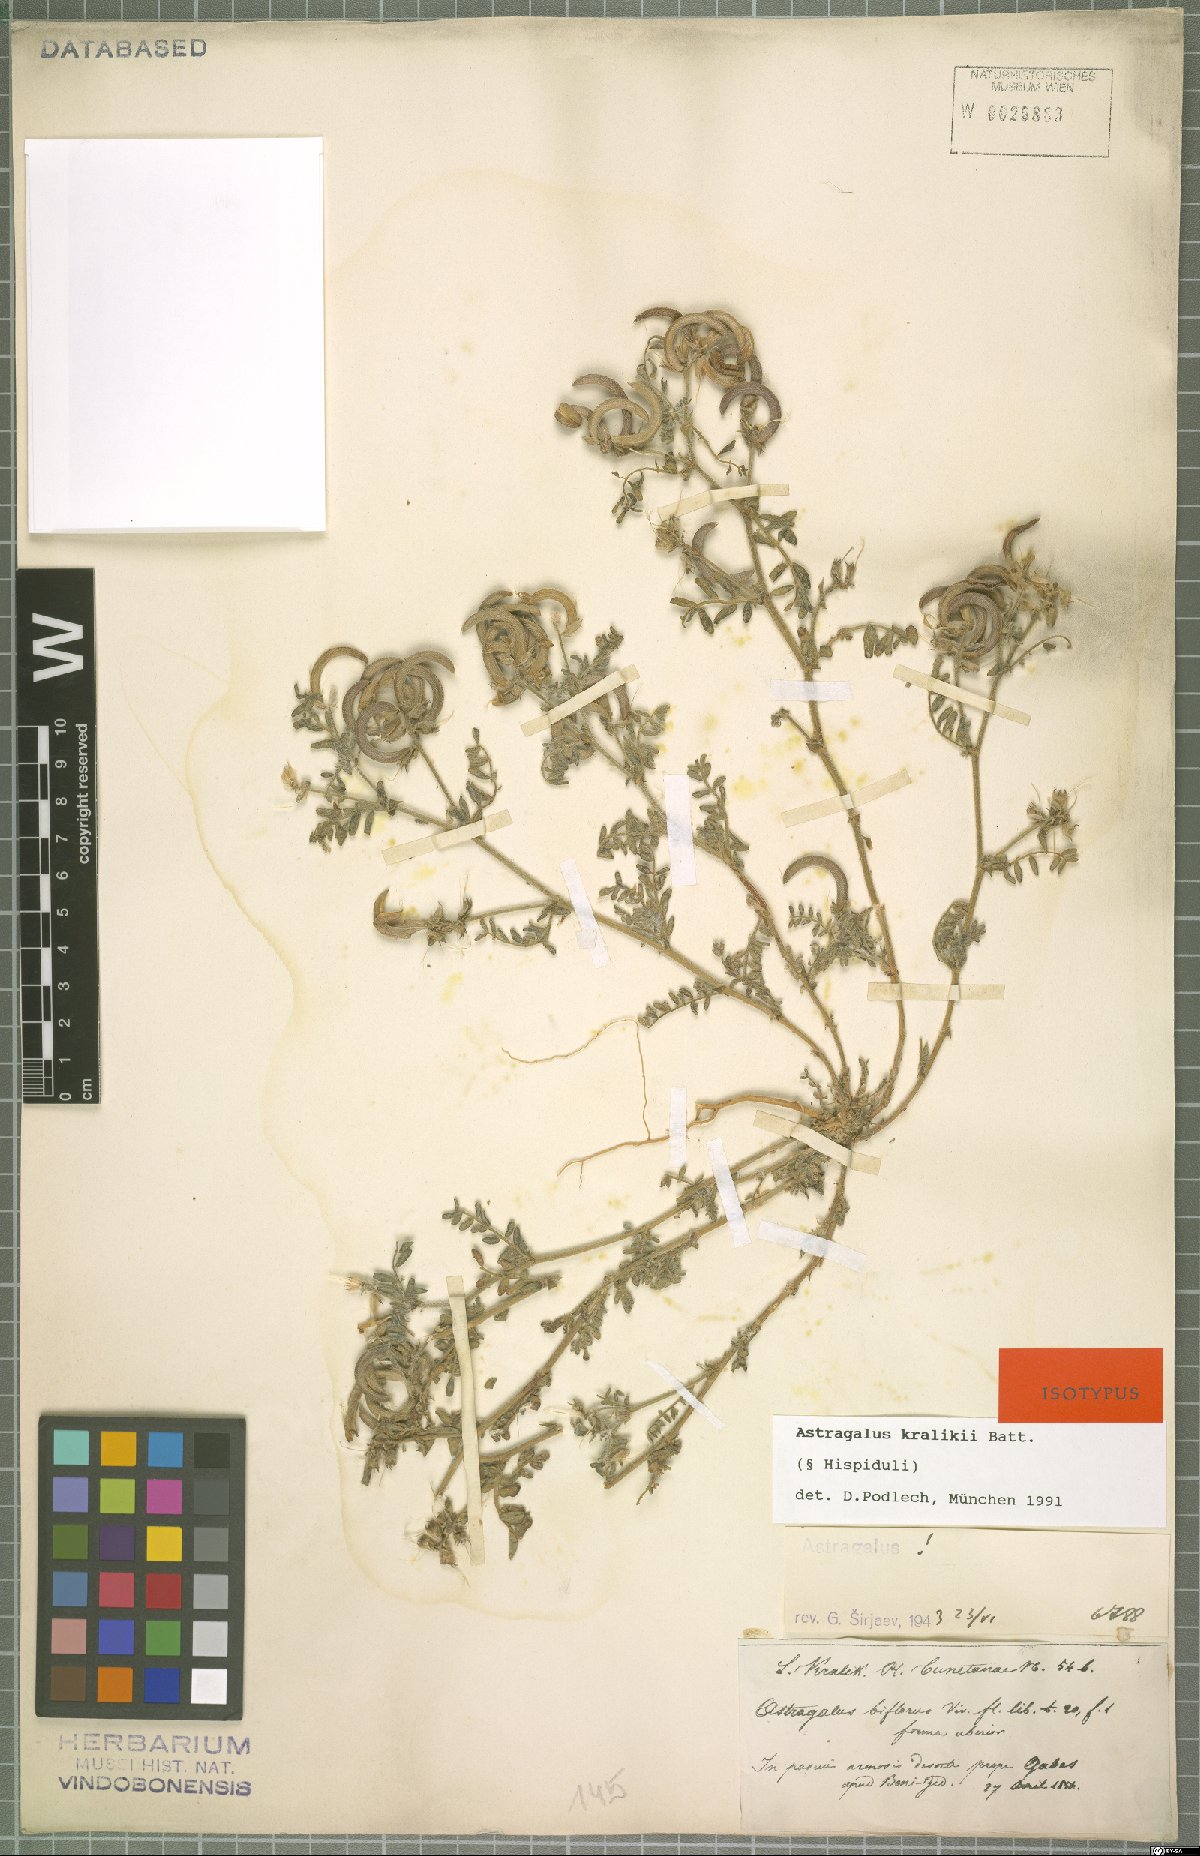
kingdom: Plantae
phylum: Tracheophyta
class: Magnoliopsida
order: Fabales
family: Fabaceae
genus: Astragalus
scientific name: Astragalus kralikii
